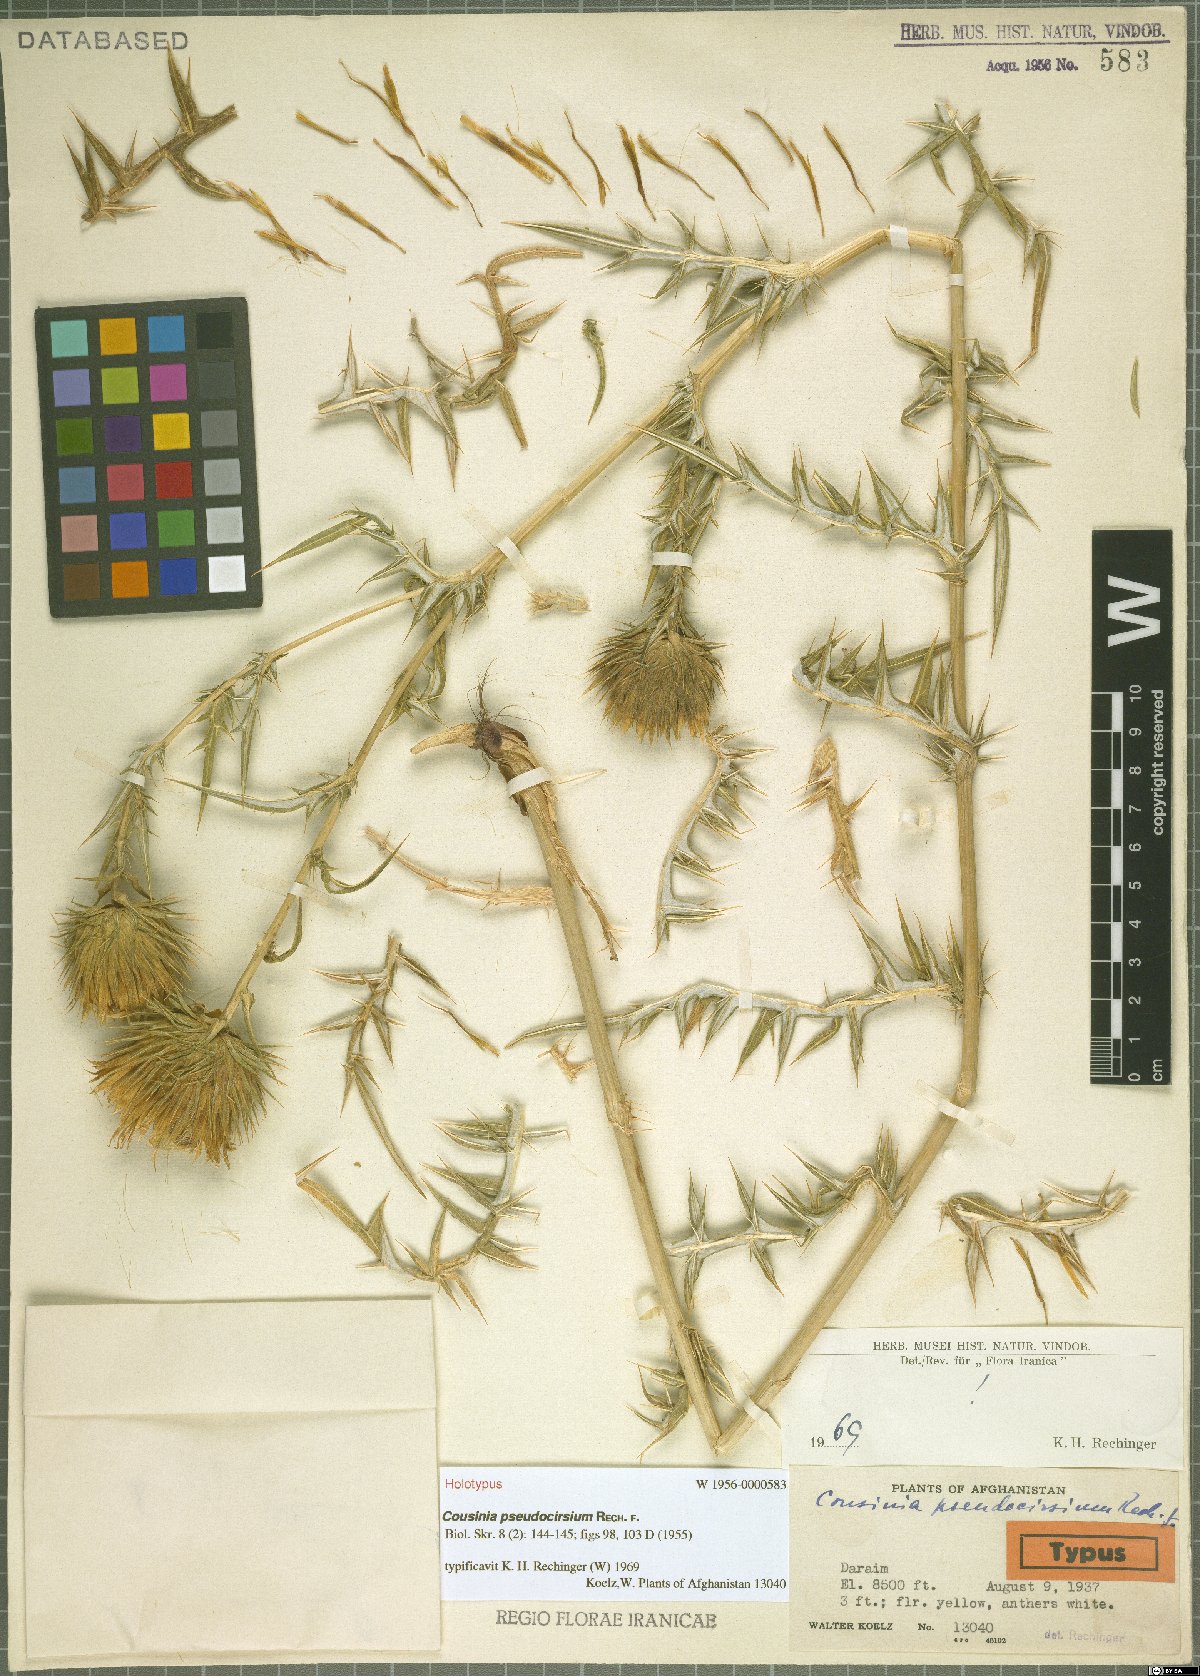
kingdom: Plantae
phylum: Tracheophyta
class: Magnoliopsida
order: Asterales
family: Asteraceae
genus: Cousinia
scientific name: Cousinia pseudocirsium
